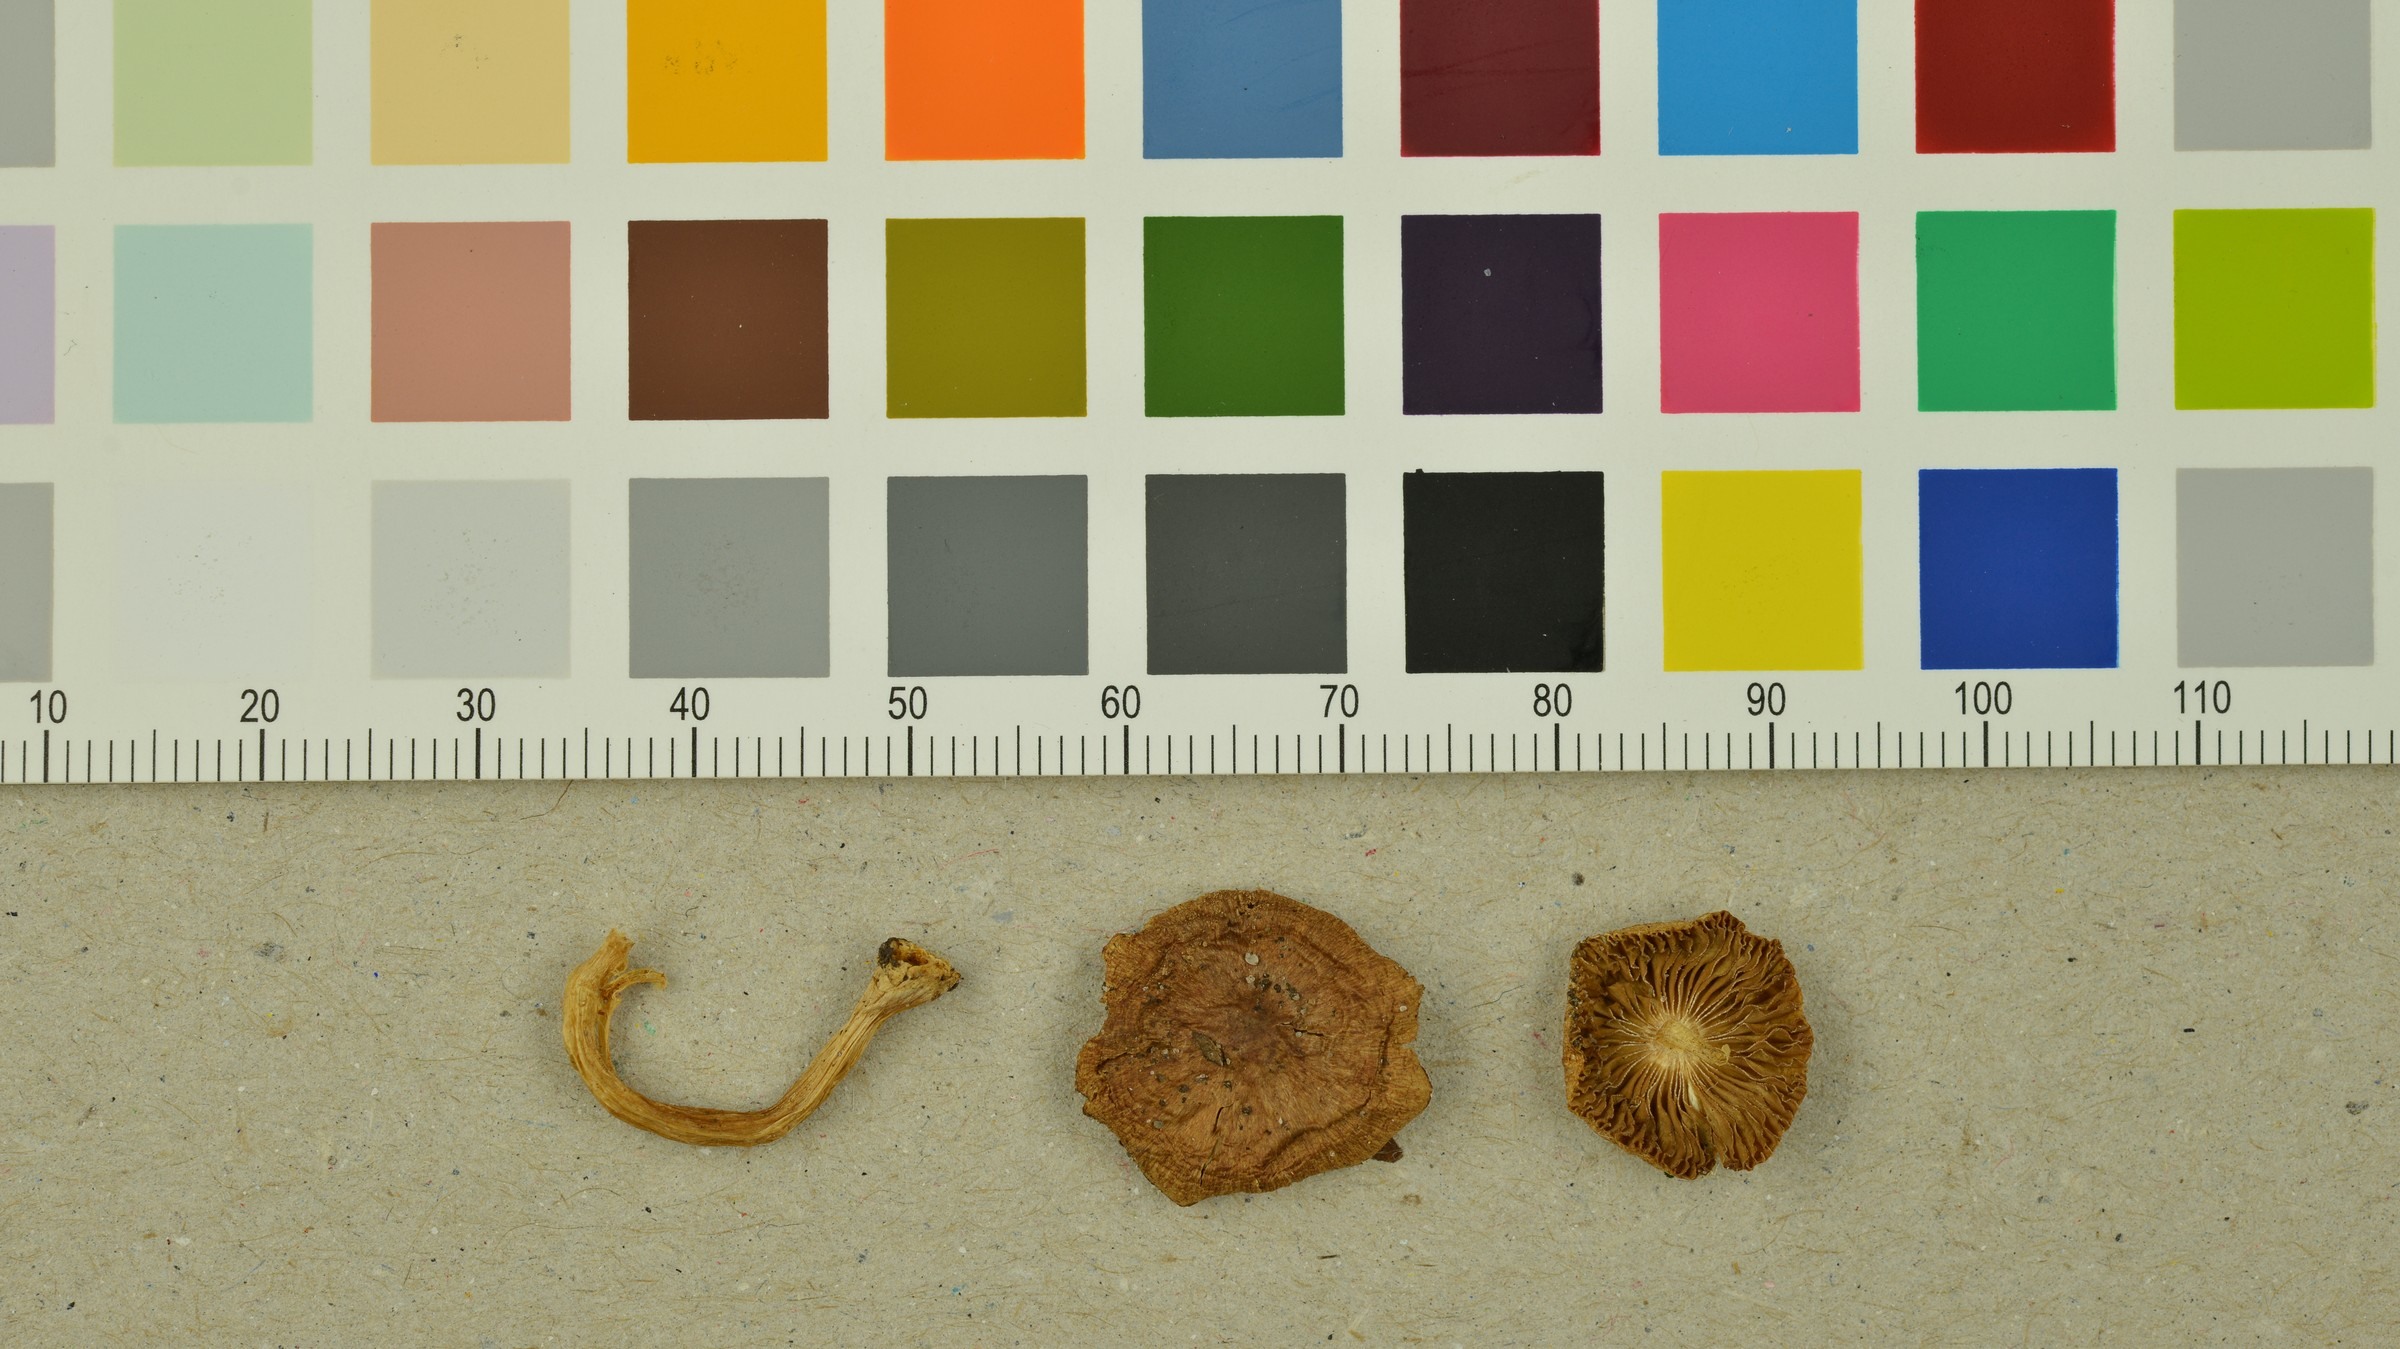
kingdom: Fungi
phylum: Basidiomycota
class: Agaricomycetes
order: Agaricales
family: Inocybaceae
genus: Inocybe
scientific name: Inocybe pelargonium
